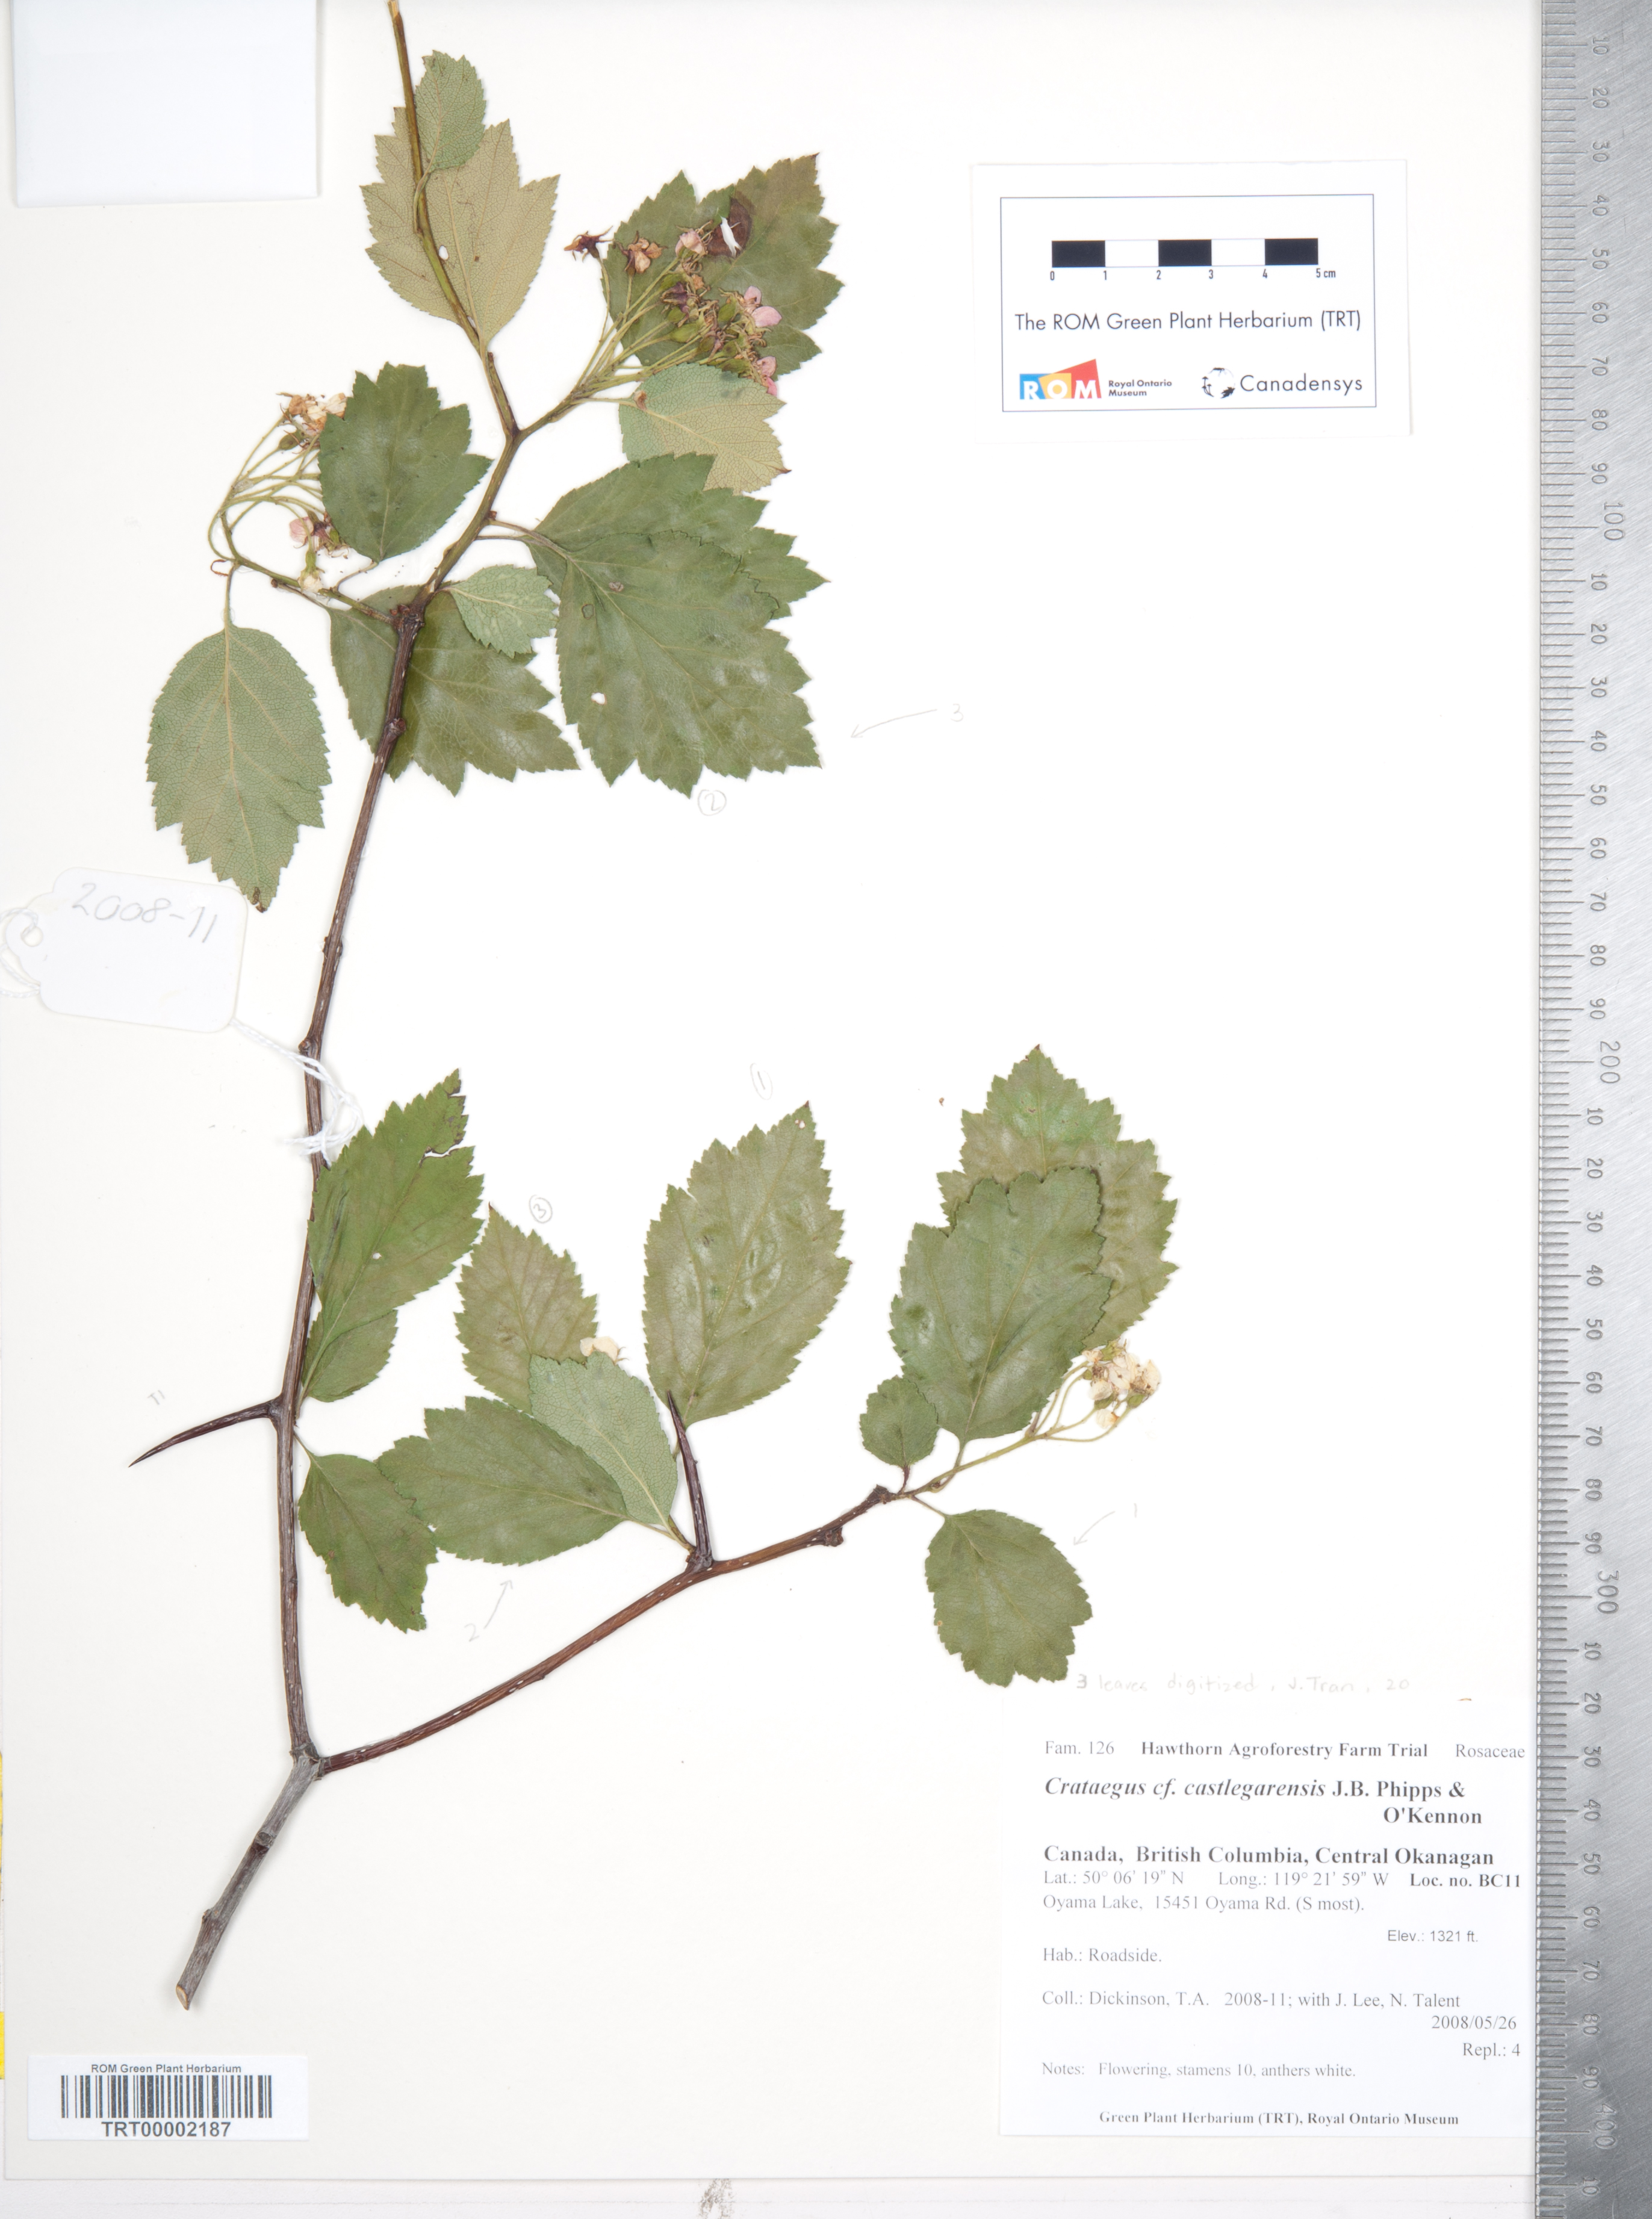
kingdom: Plantae
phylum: Tracheophyta
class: Magnoliopsida
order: Rosales
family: Rosaceae
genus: Crataegus
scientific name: Crataegus castlegarensis
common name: Castlegar hawthorn
